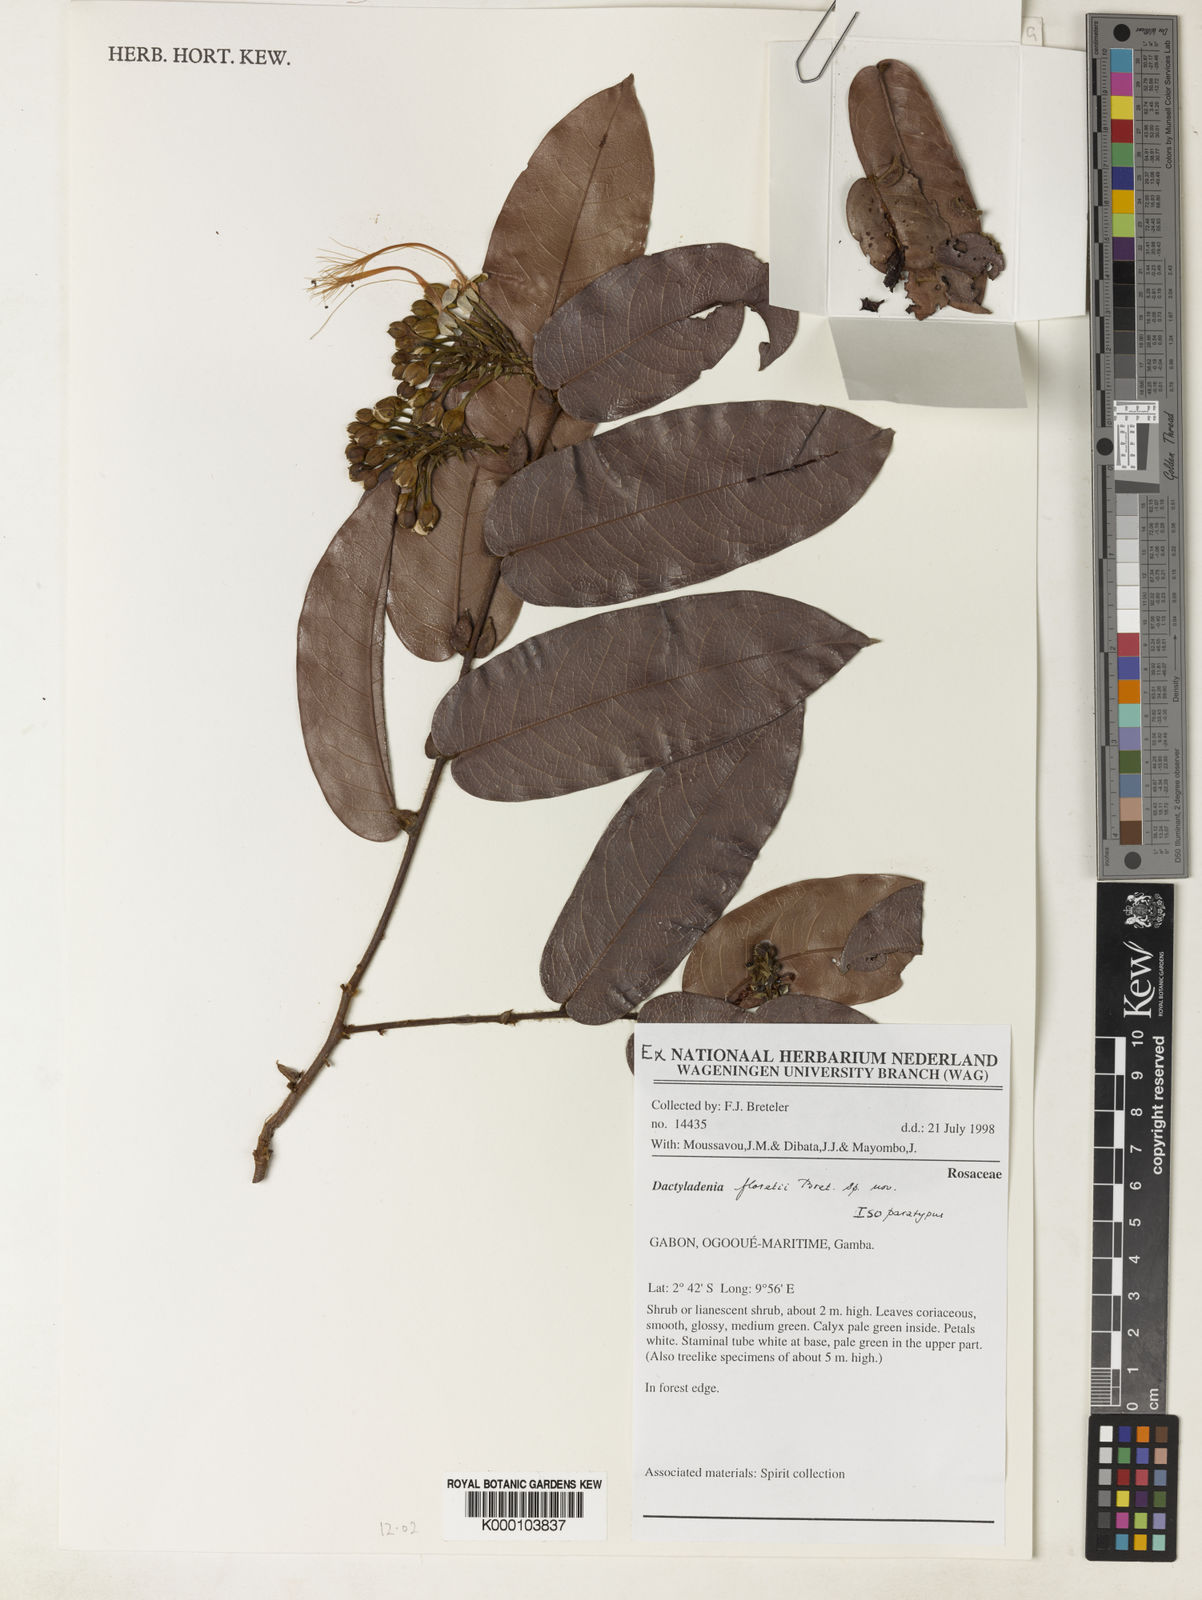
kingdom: Plantae
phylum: Tracheophyta
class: Magnoliopsida
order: Malpighiales
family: Chrysobalanaceae
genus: Dactyladenia
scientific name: Dactyladenia floretii
